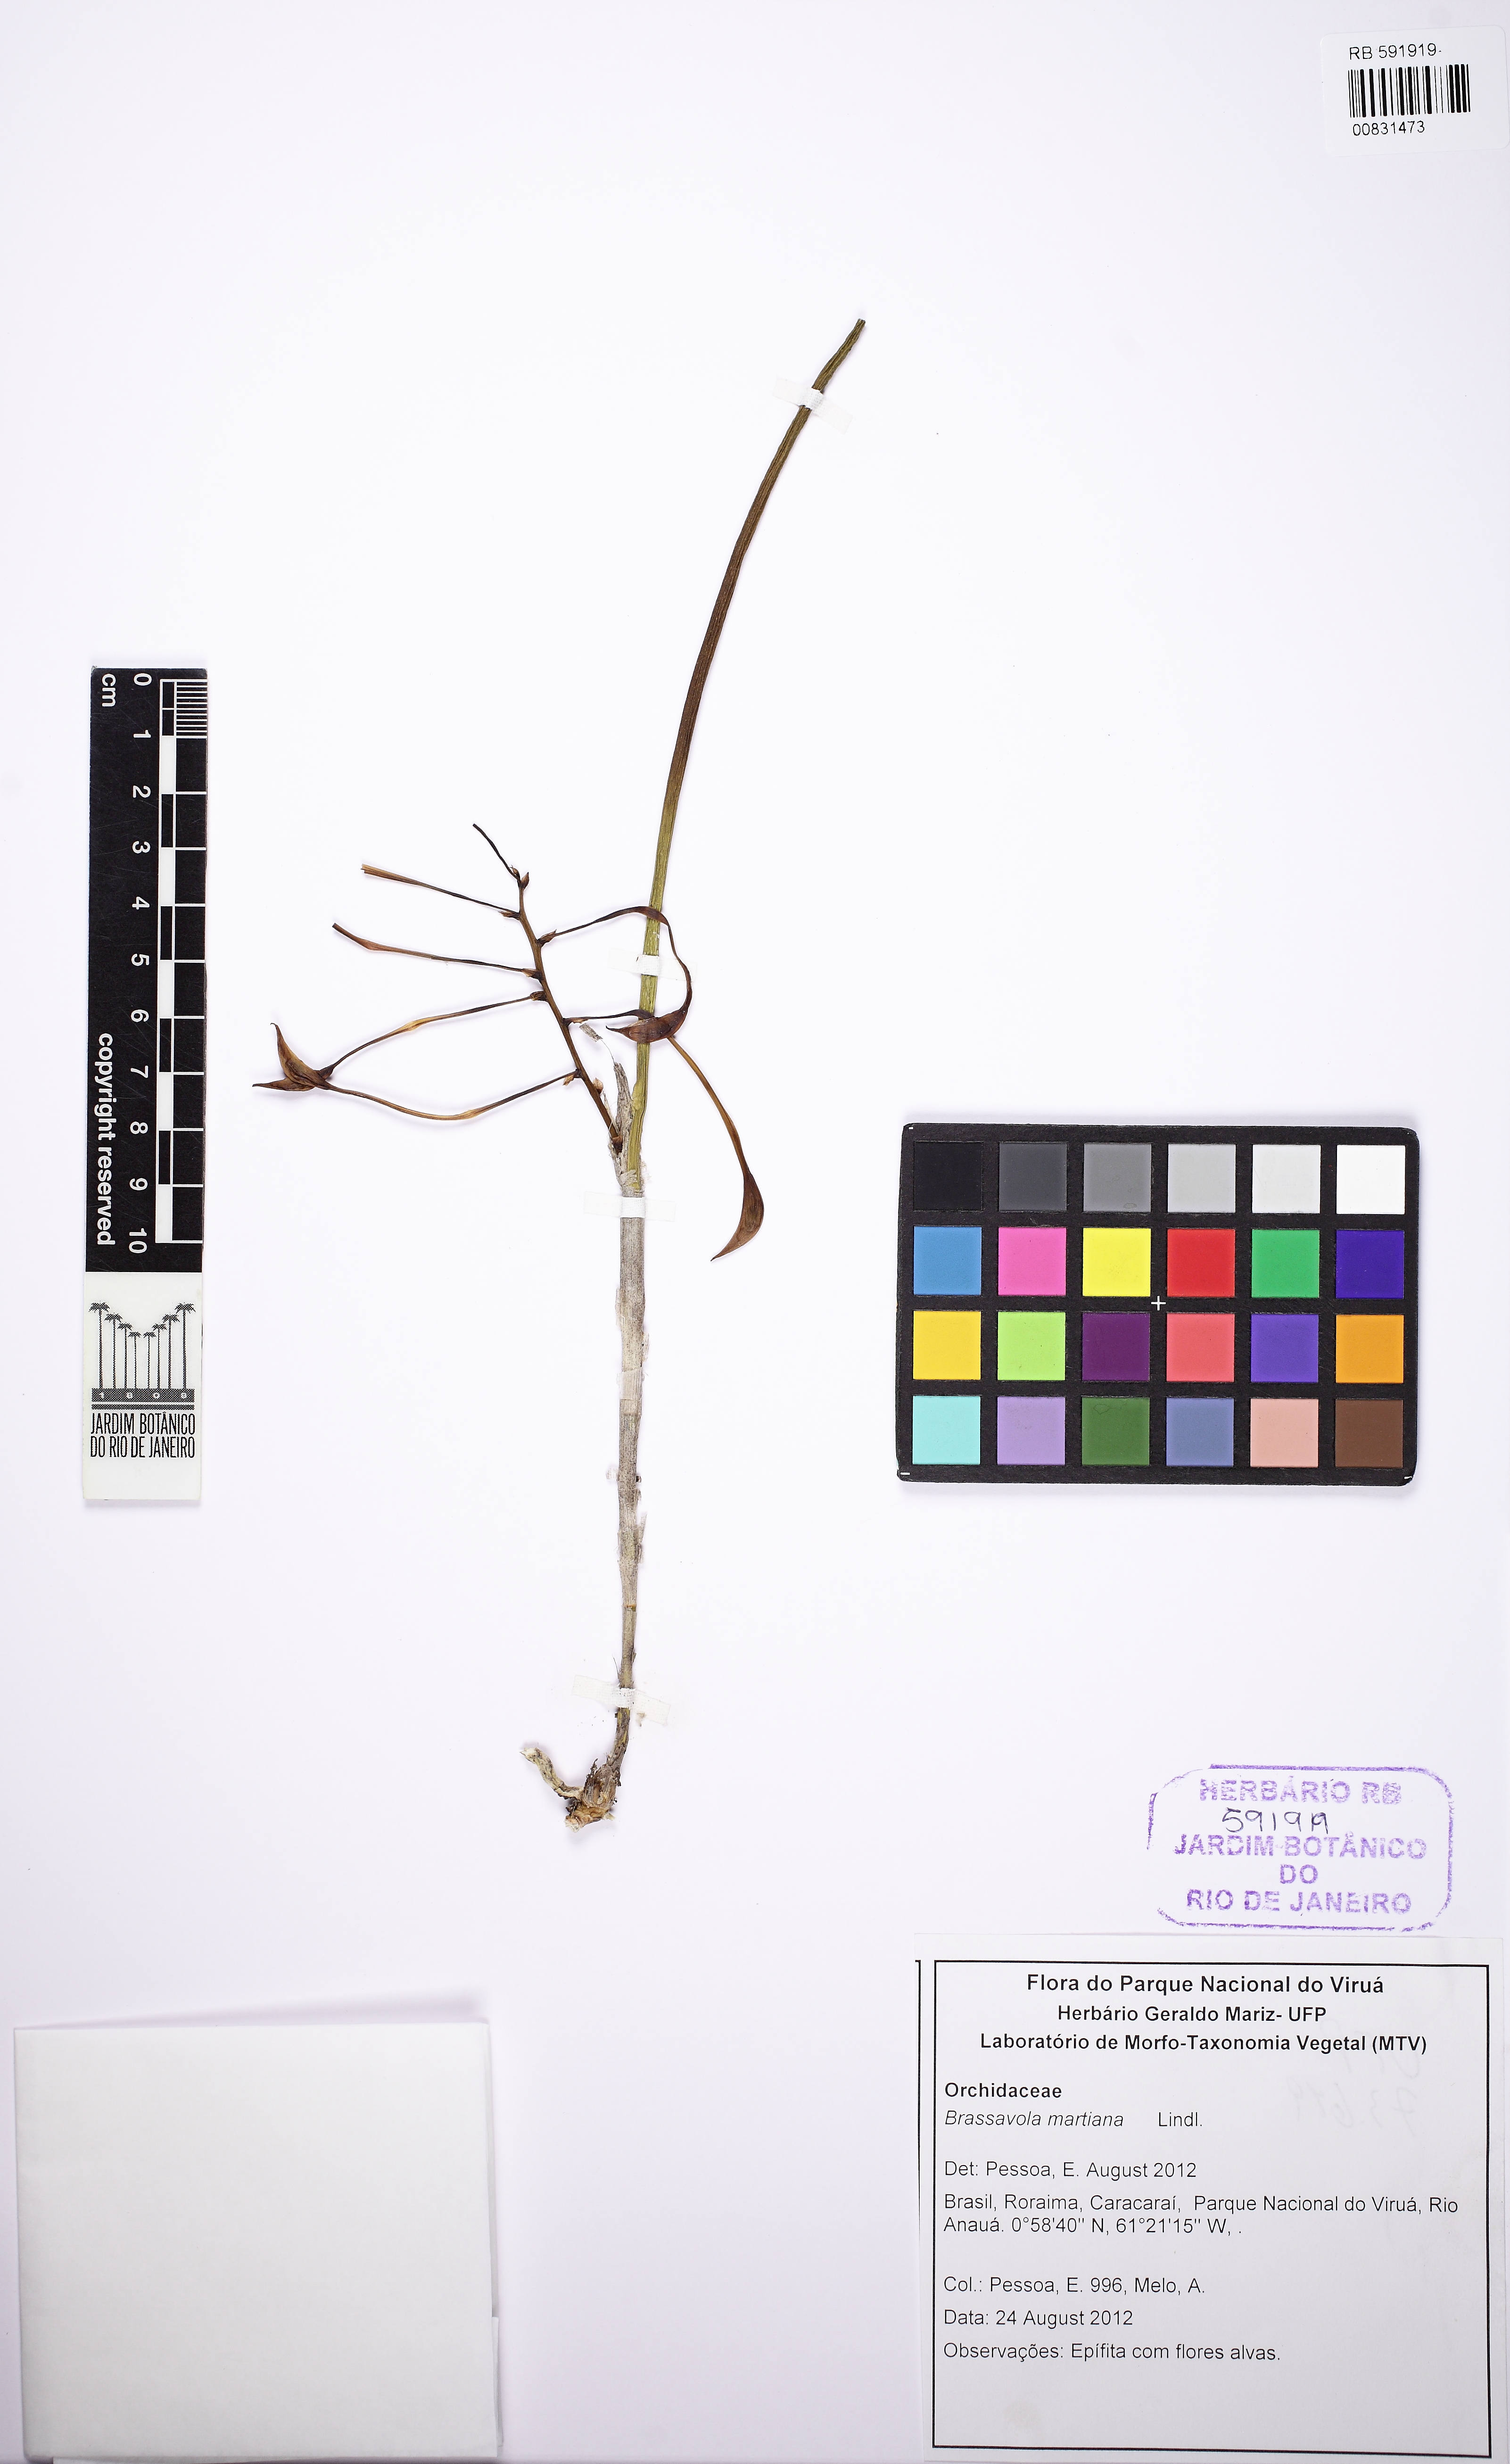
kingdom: Plantae
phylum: Tracheophyta
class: Liliopsida
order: Asparagales
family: Orchidaceae
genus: Brassavola
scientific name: Brassavola martiana
